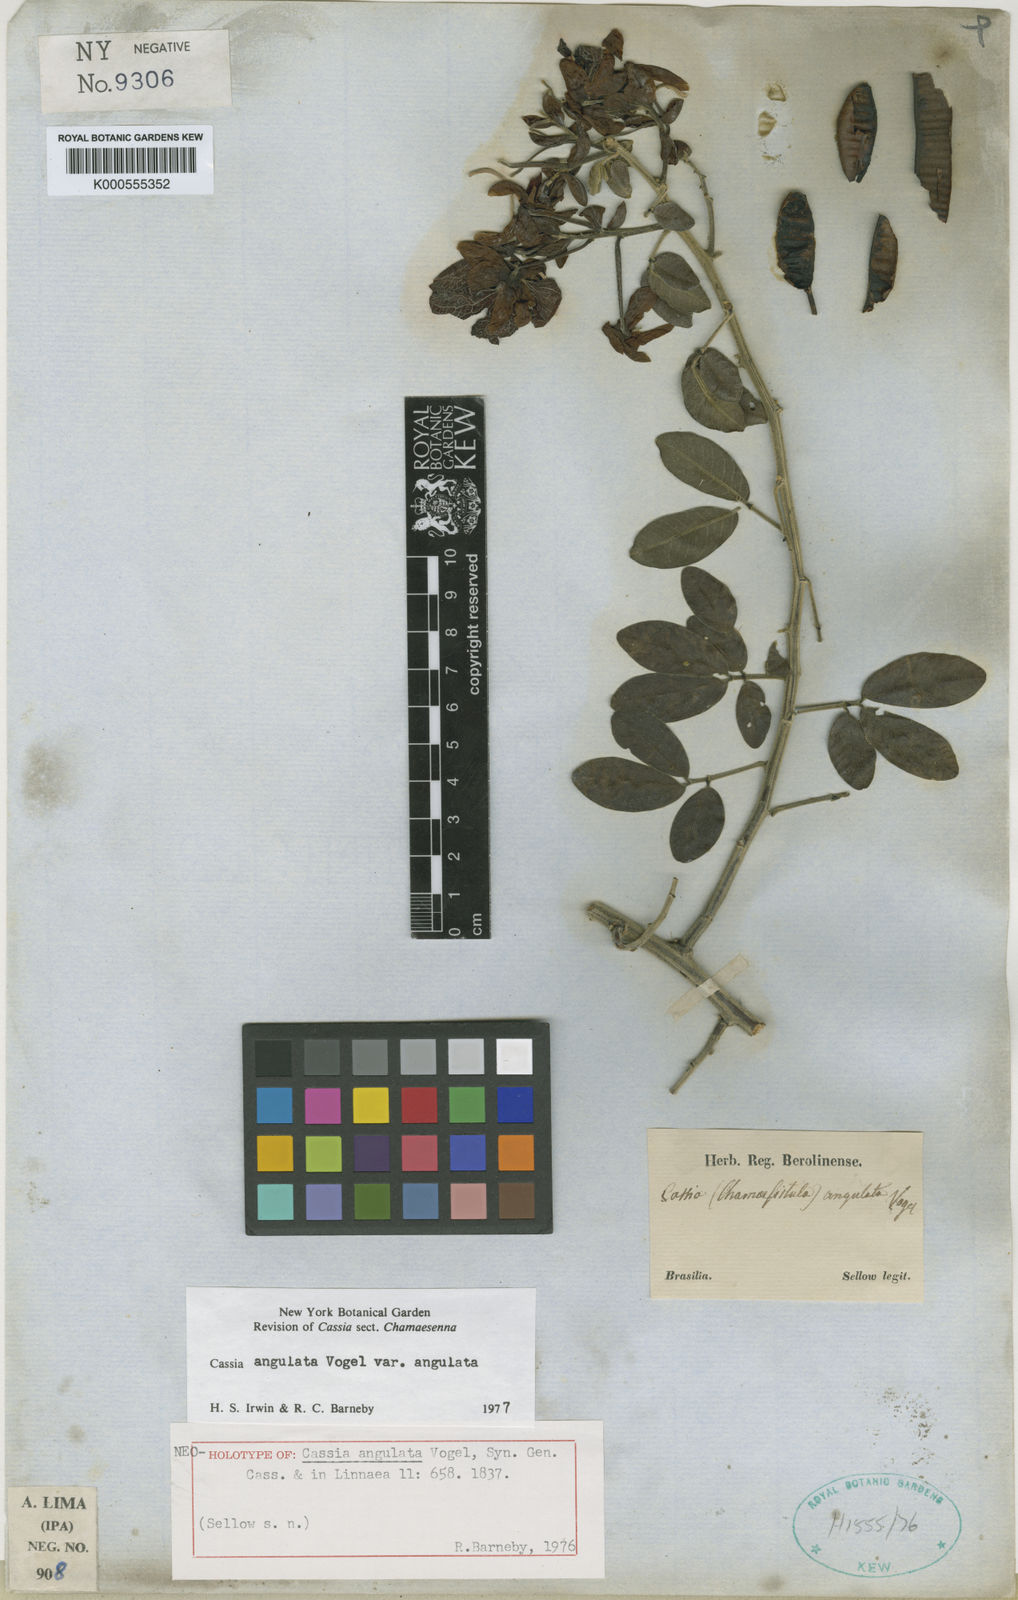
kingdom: Plantae
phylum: Tracheophyta
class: Magnoliopsida
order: Fabales
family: Fabaceae
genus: Senna
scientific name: Senna angulata
